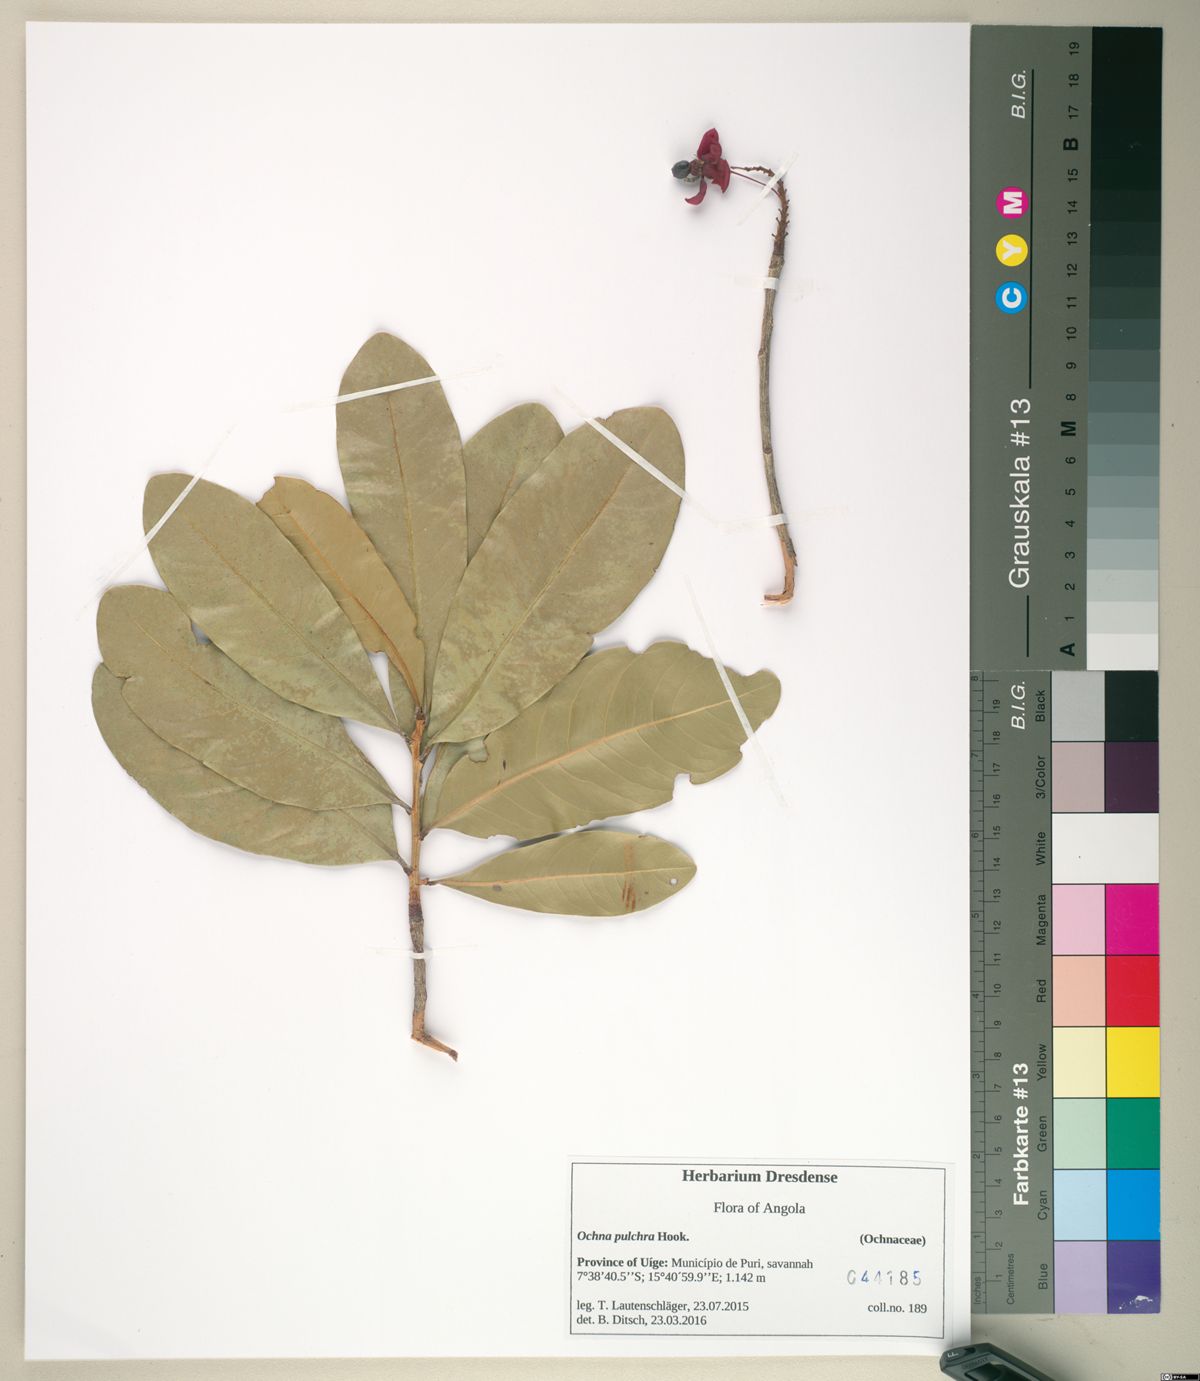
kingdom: Plantae
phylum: Tracheophyta
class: Magnoliopsida
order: Malpighiales
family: Ochnaceae
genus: Ochna
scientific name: Ochna pulchra
